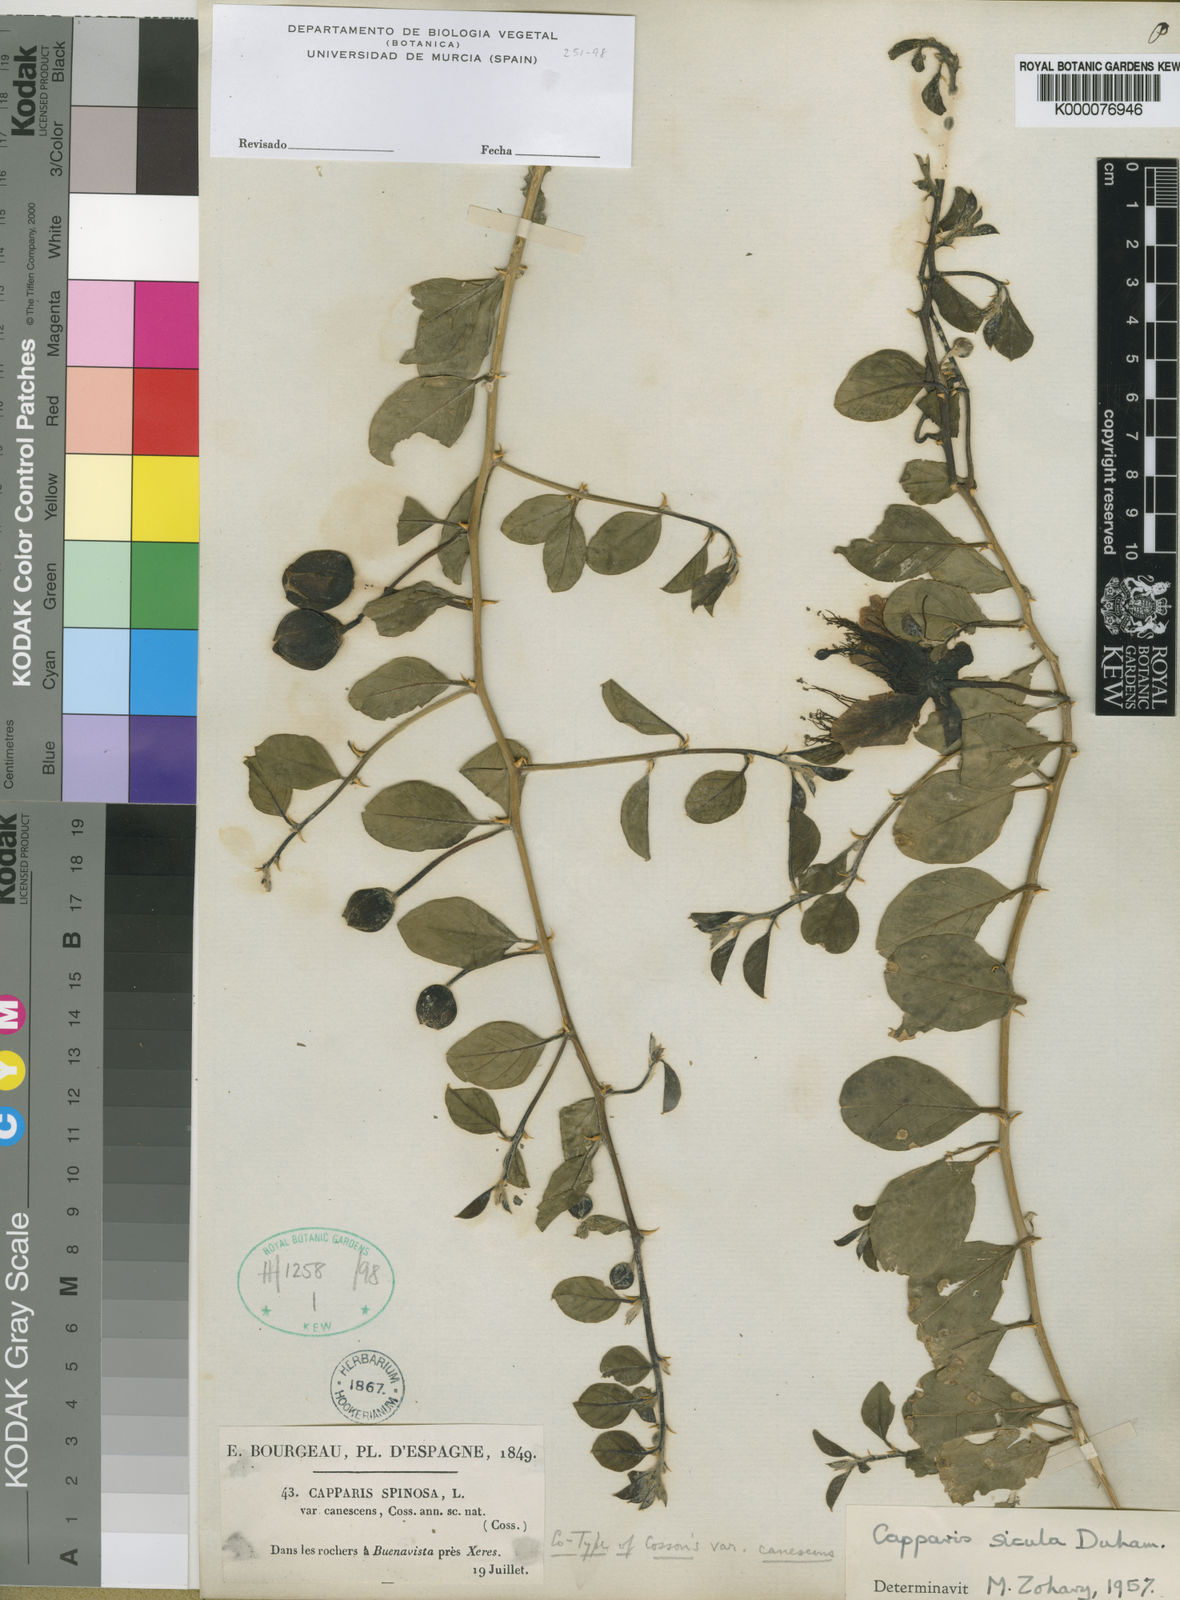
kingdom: Plantae
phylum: Tracheophyta
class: Magnoliopsida
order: Brassicales
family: Capparaceae
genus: Capparis
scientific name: Capparis spinosa
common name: Caper
